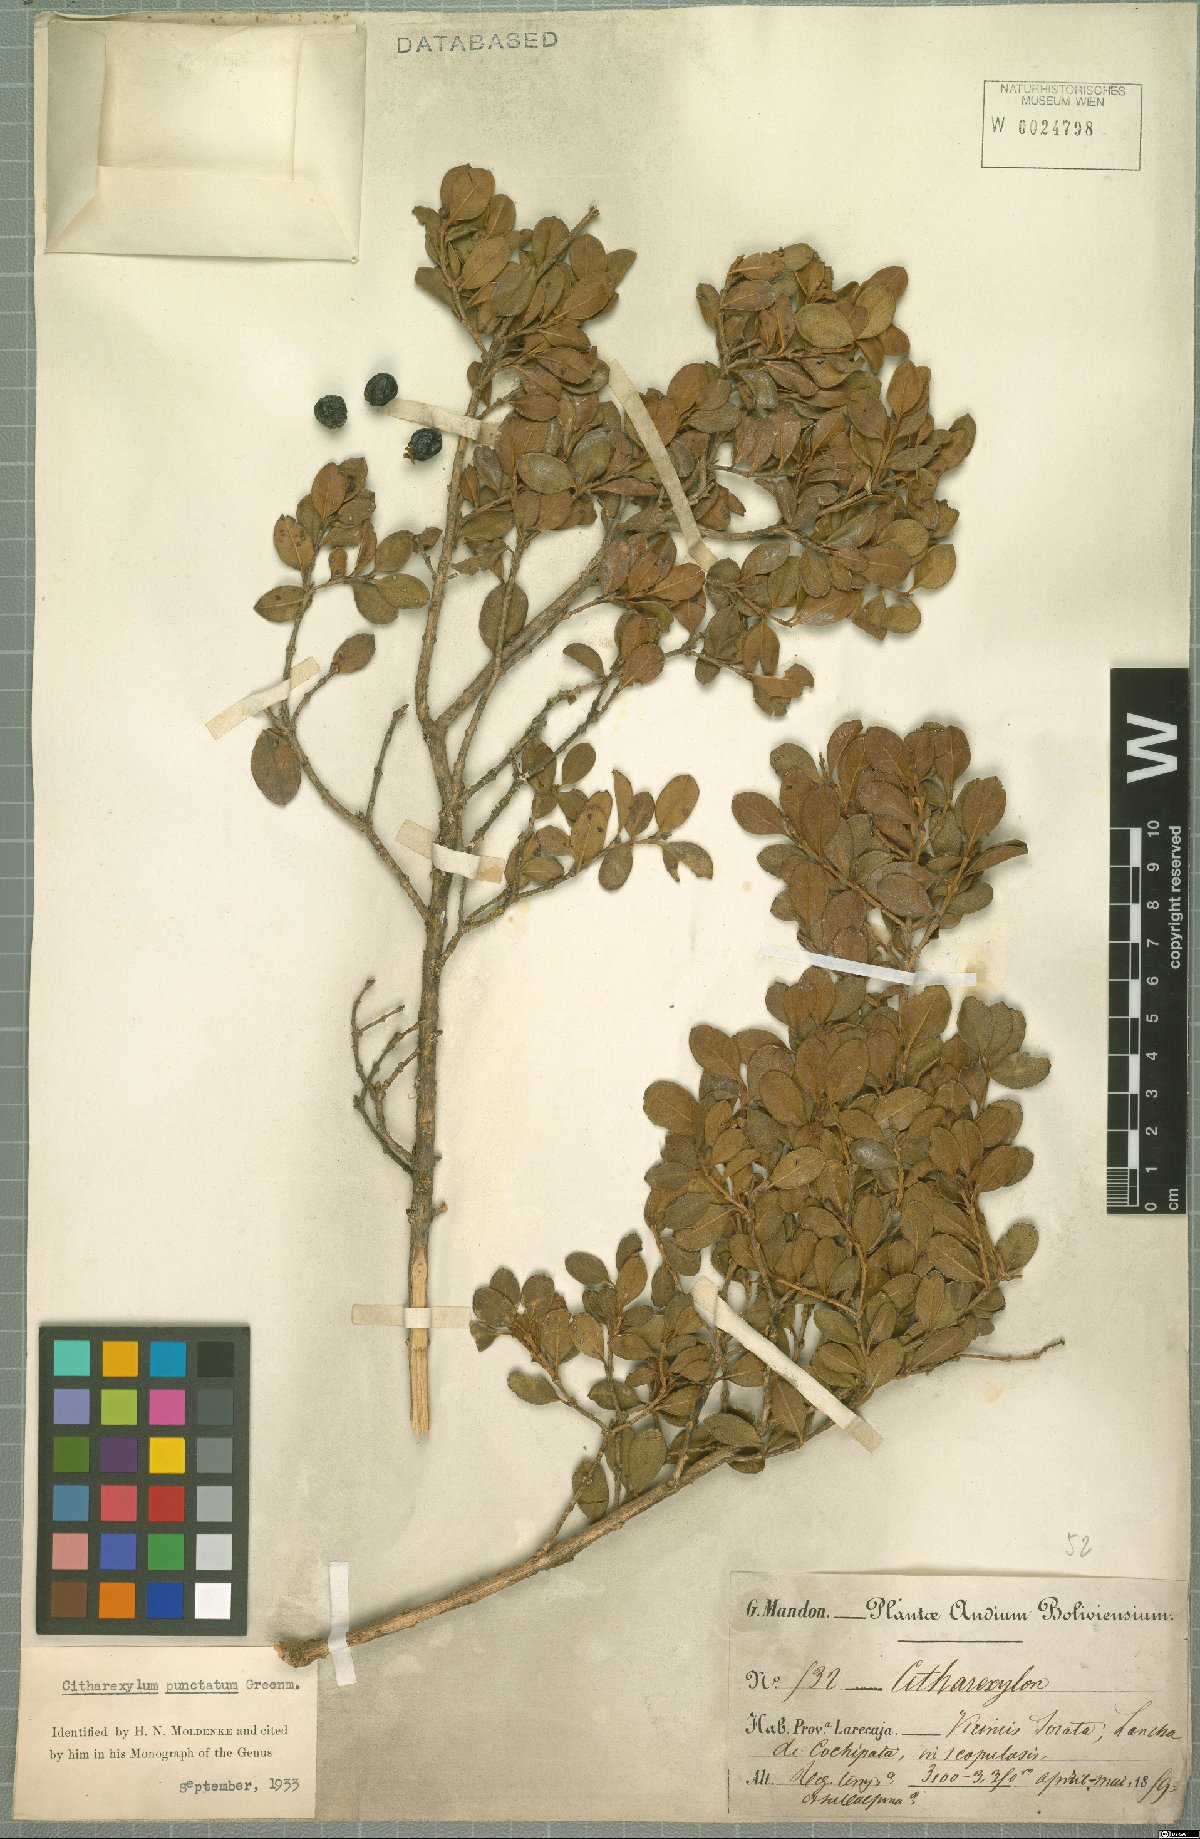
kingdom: Plantae
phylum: Tracheophyta
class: Magnoliopsida
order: Lamiales
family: Verbenaceae
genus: Citharexylum
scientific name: Citharexylum dentatum
